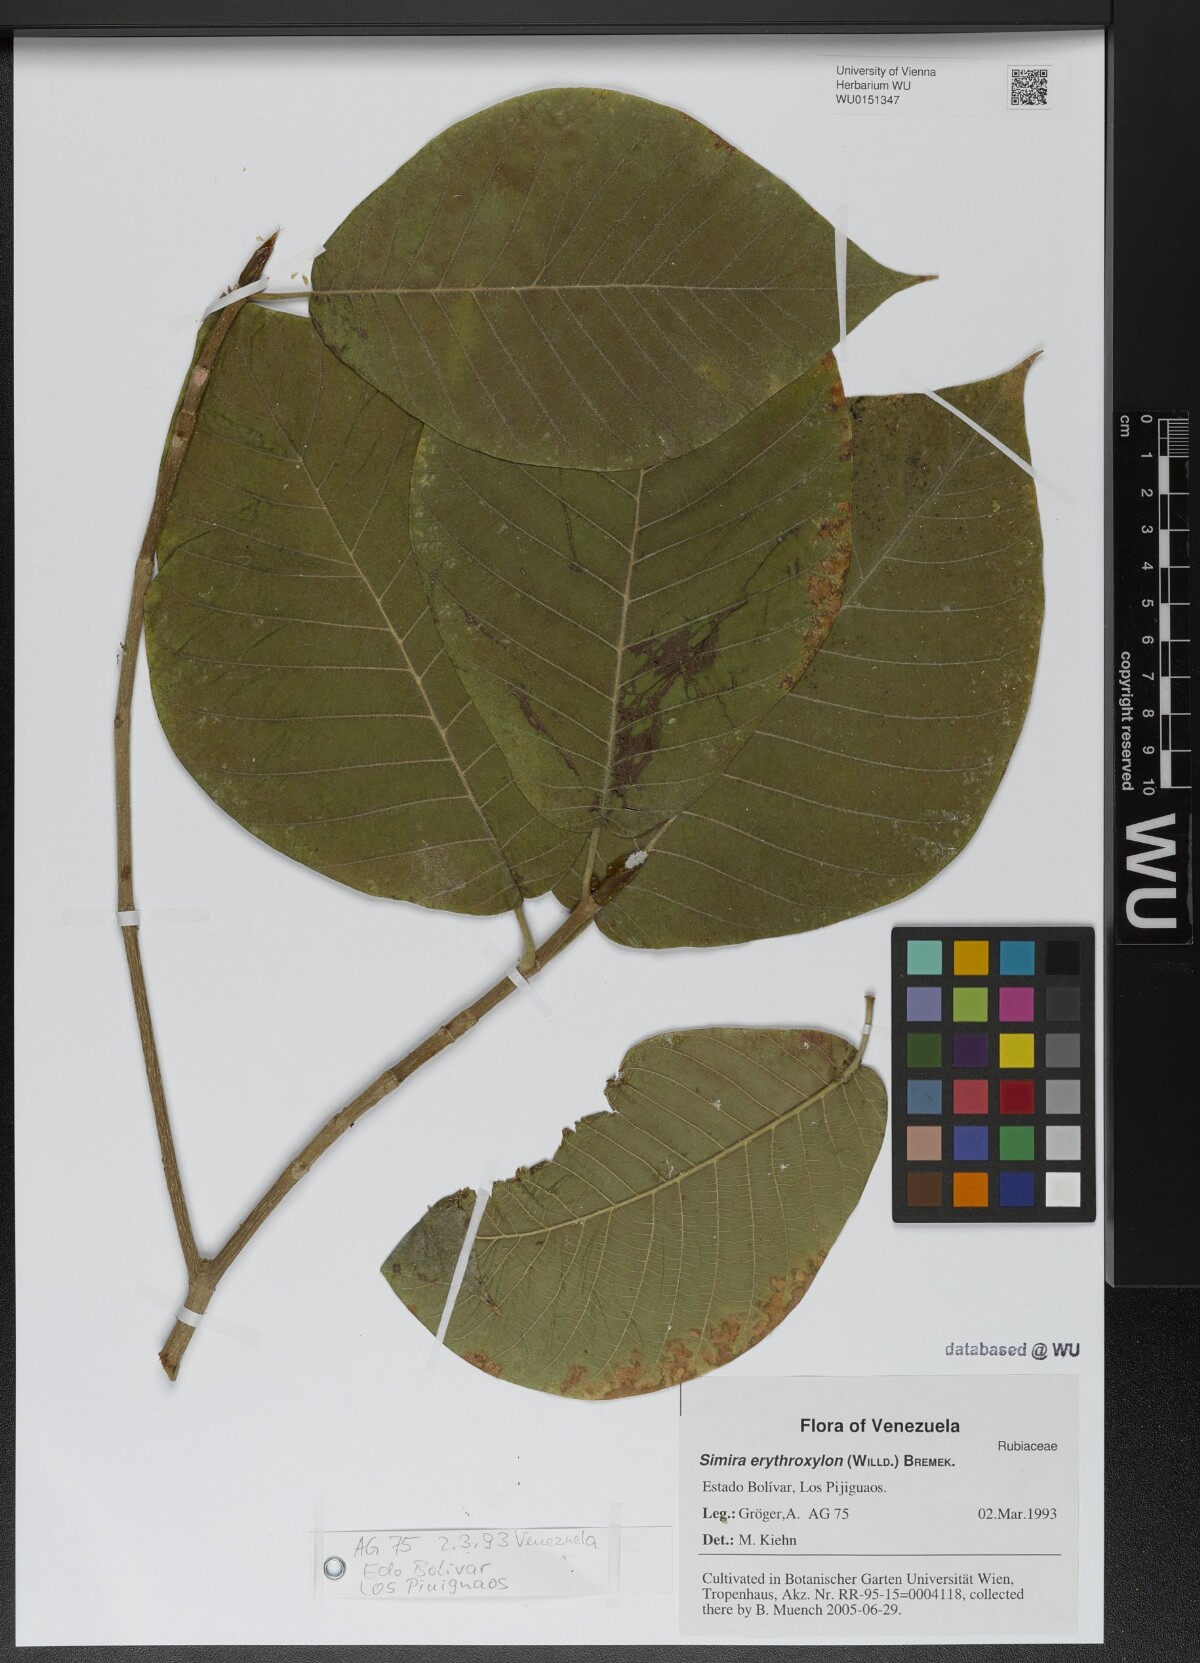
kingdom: Plantae
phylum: Tracheophyta
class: Magnoliopsida
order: Gentianales
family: Rubiaceae
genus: Simira
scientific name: Simira erythroxylon
